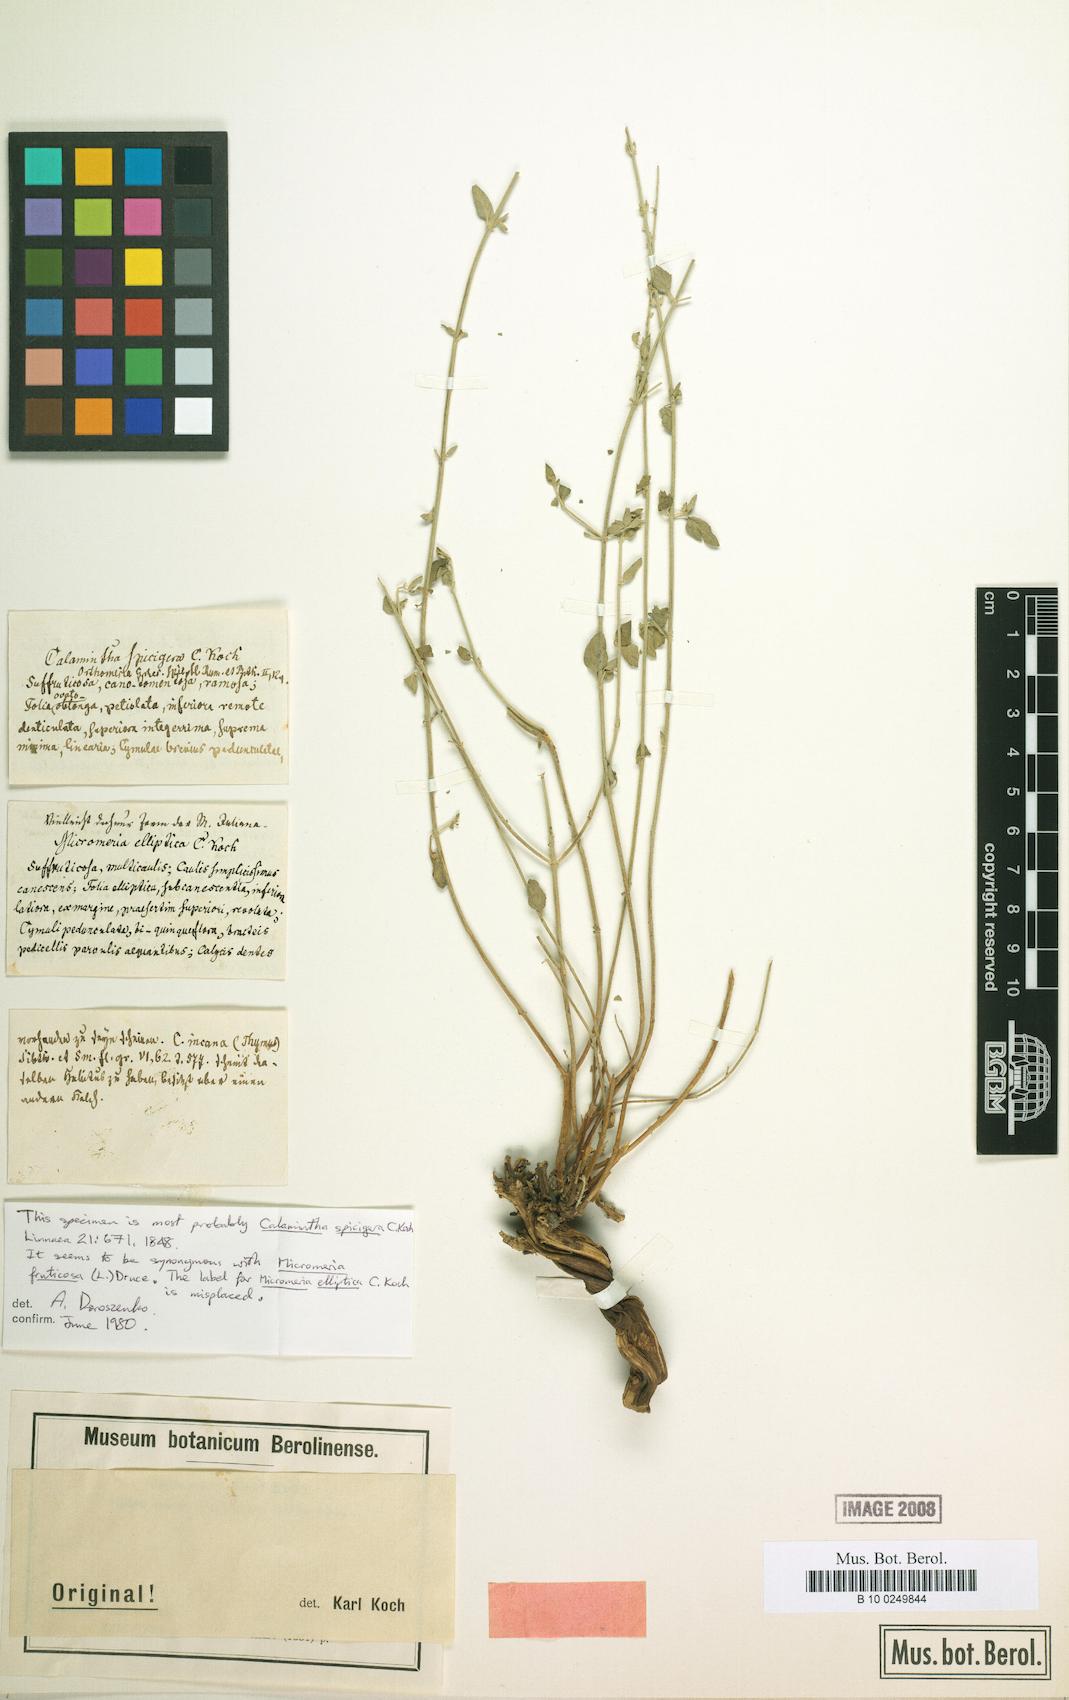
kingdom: Plantae
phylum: Tracheophyta
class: Magnoliopsida
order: Lamiales
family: Lamiaceae
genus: Clinopodium
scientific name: Clinopodium serpyllifolium
